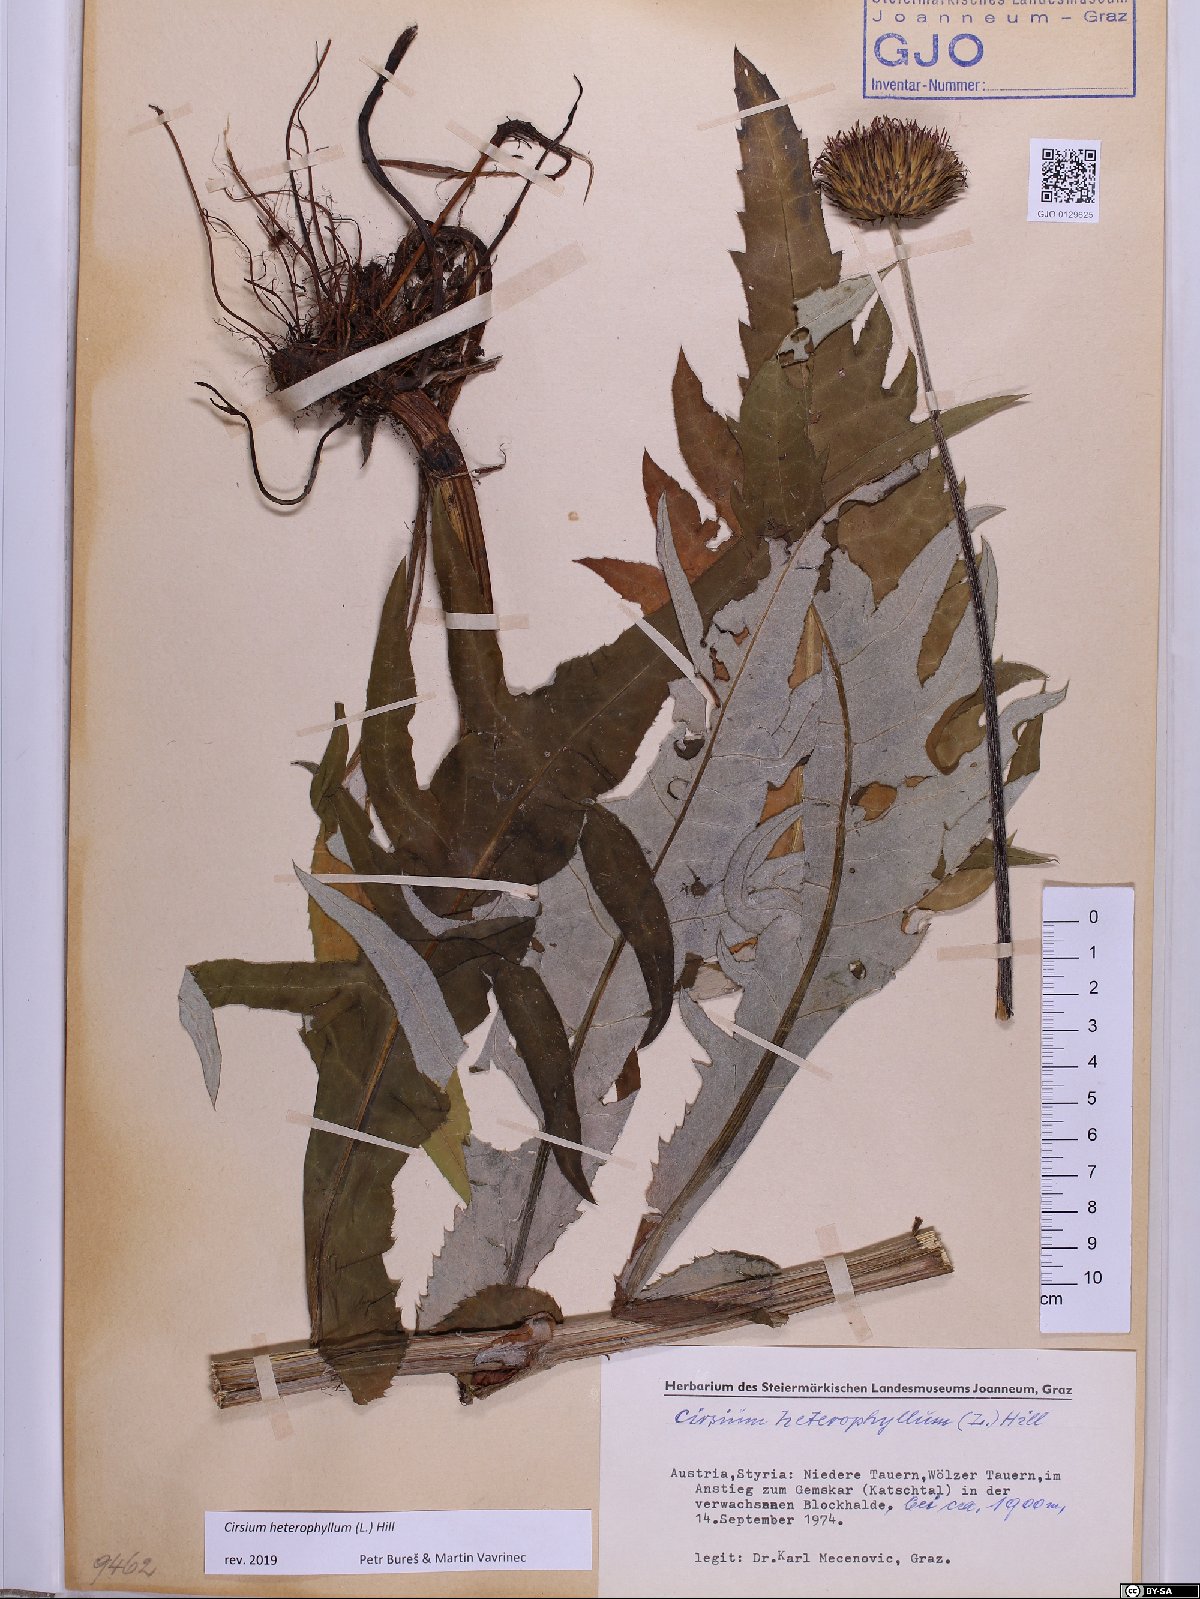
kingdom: Plantae
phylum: Tracheophyta
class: Magnoliopsida
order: Asterales
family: Asteraceae
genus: Cirsium
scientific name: Cirsium heterophyllum
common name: Melancholy thistle
